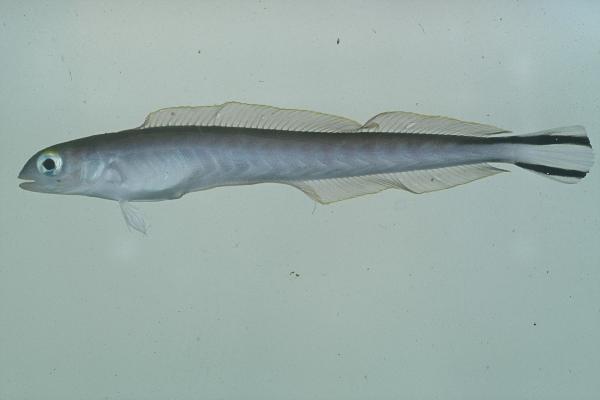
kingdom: Animalia
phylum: Chordata
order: Perciformes
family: Malacanthidae
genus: Malacanthus
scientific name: Malacanthus brevirostris
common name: Flagtail blanquillo
